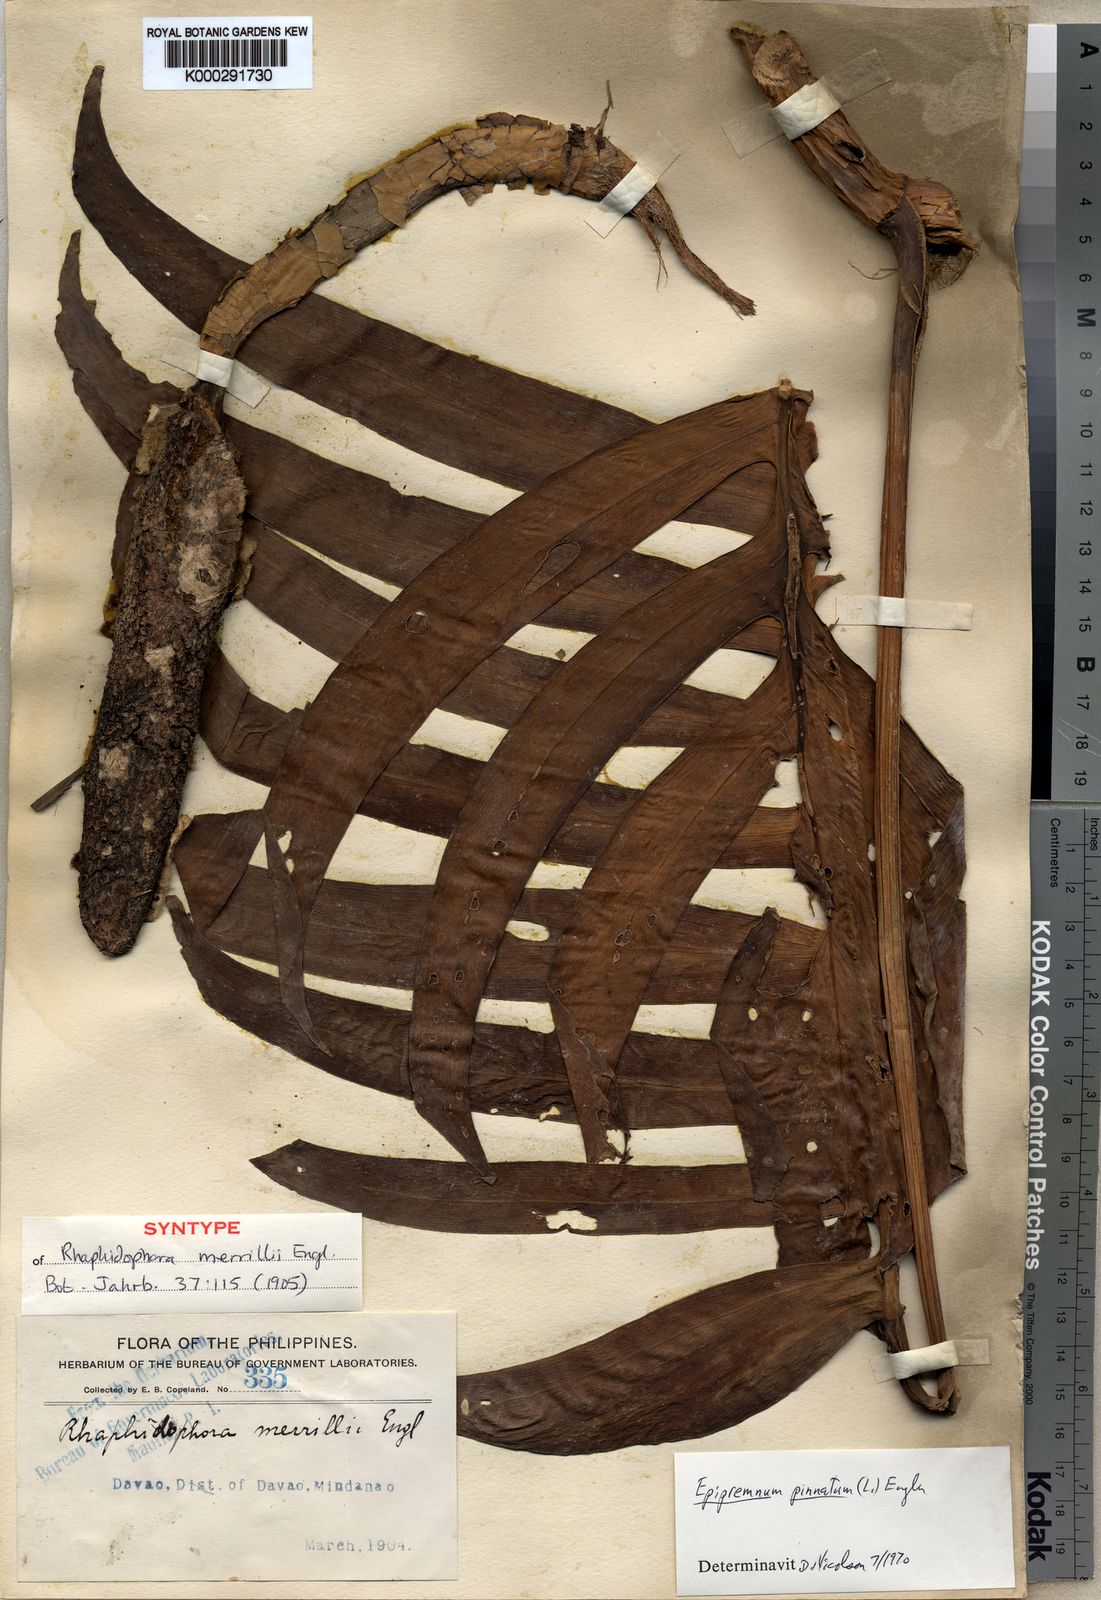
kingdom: Plantae
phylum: Tracheophyta
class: Liliopsida
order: Alismatales
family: Araceae
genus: Epipremnum
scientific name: Epipremnum pinnatum
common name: Centipede tongavine
